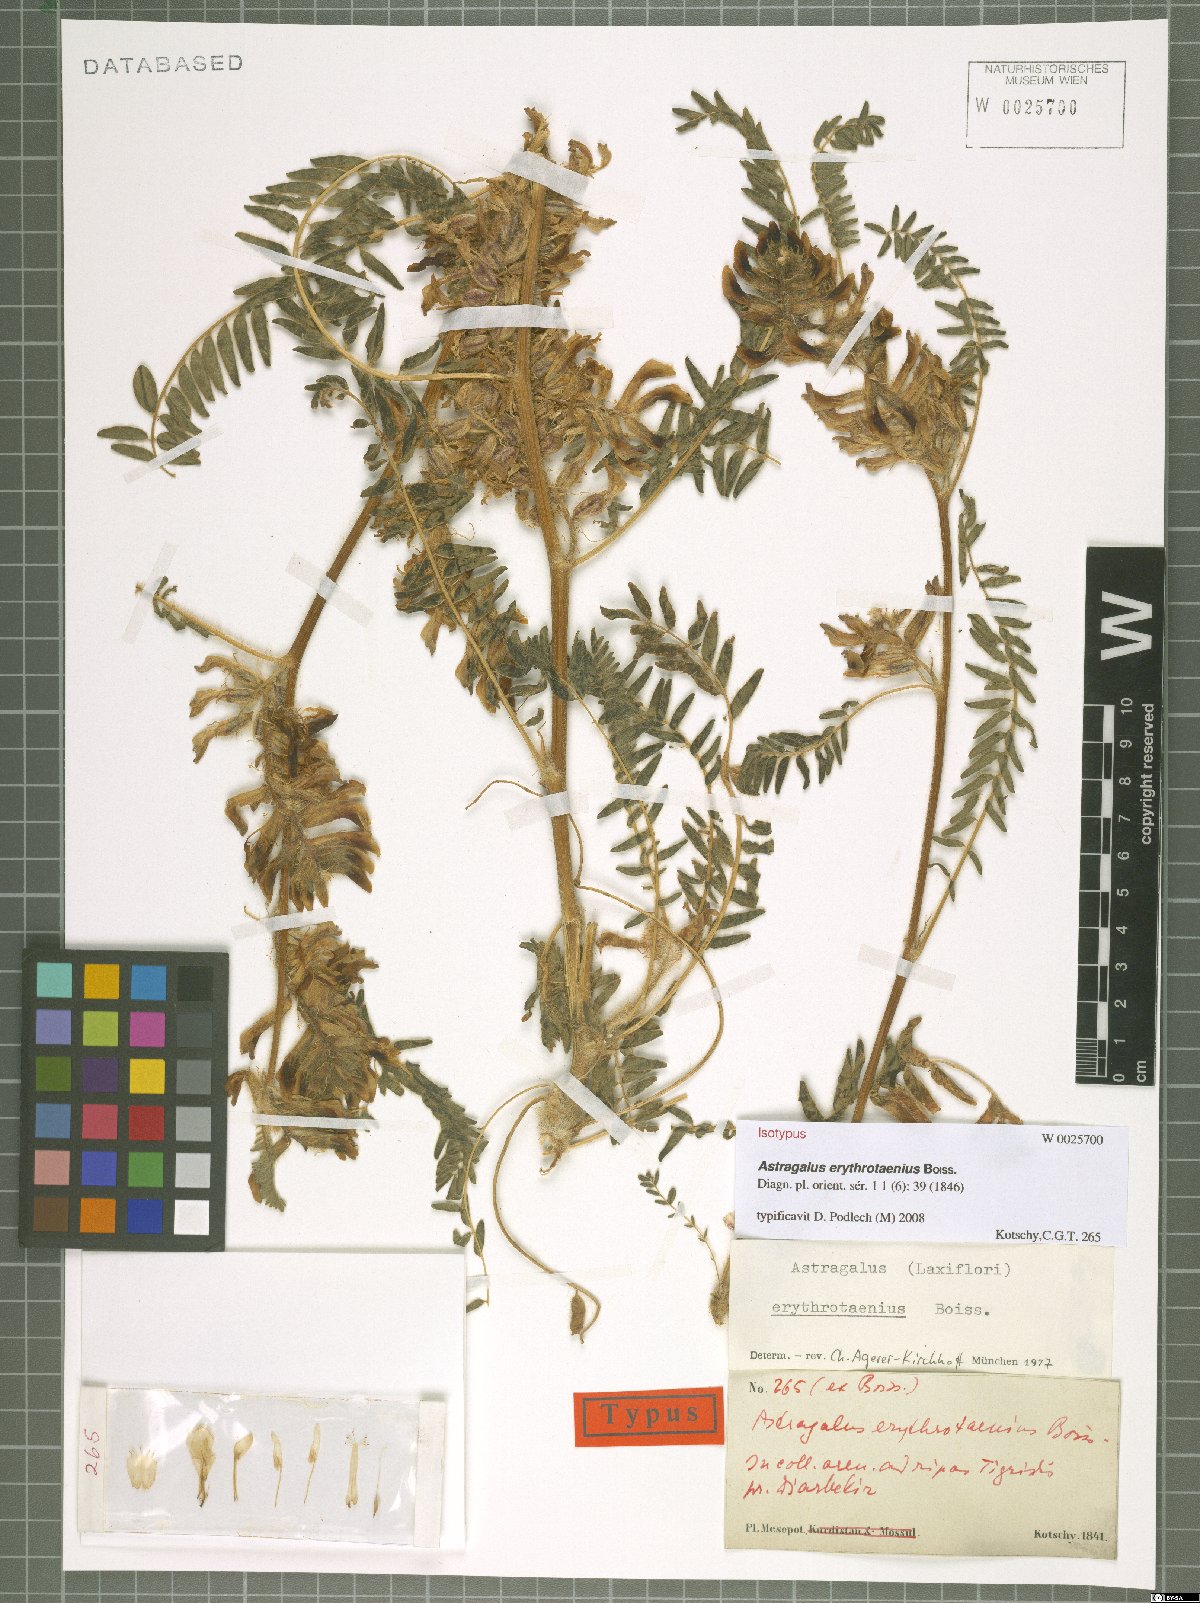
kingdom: Plantae
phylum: Tracheophyta
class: Magnoliopsida
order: Fabales
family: Fabaceae
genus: Astragalus
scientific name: Astragalus erythrotaenius
